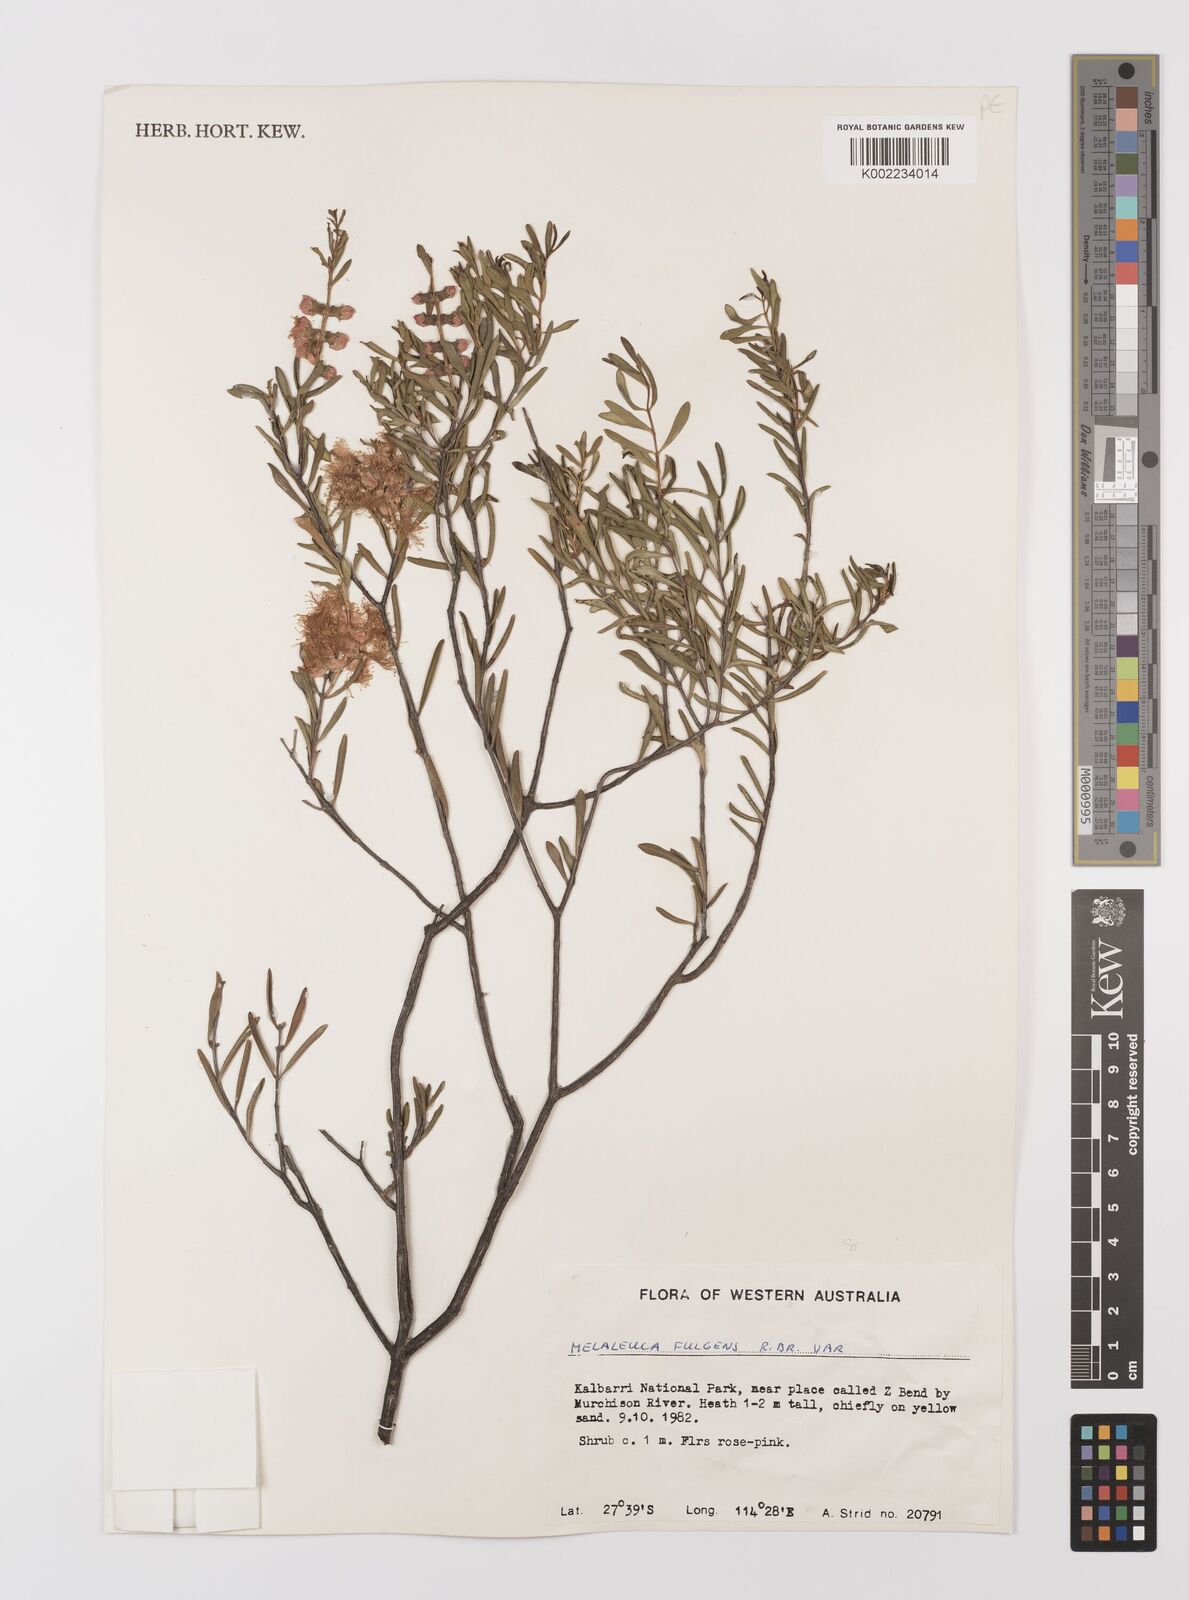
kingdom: Plantae
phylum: Tracheophyta
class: Magnoliopsida
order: Myrtales
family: Myrtaceae
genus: Melaleuca
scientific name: Melaleuca fulgens
